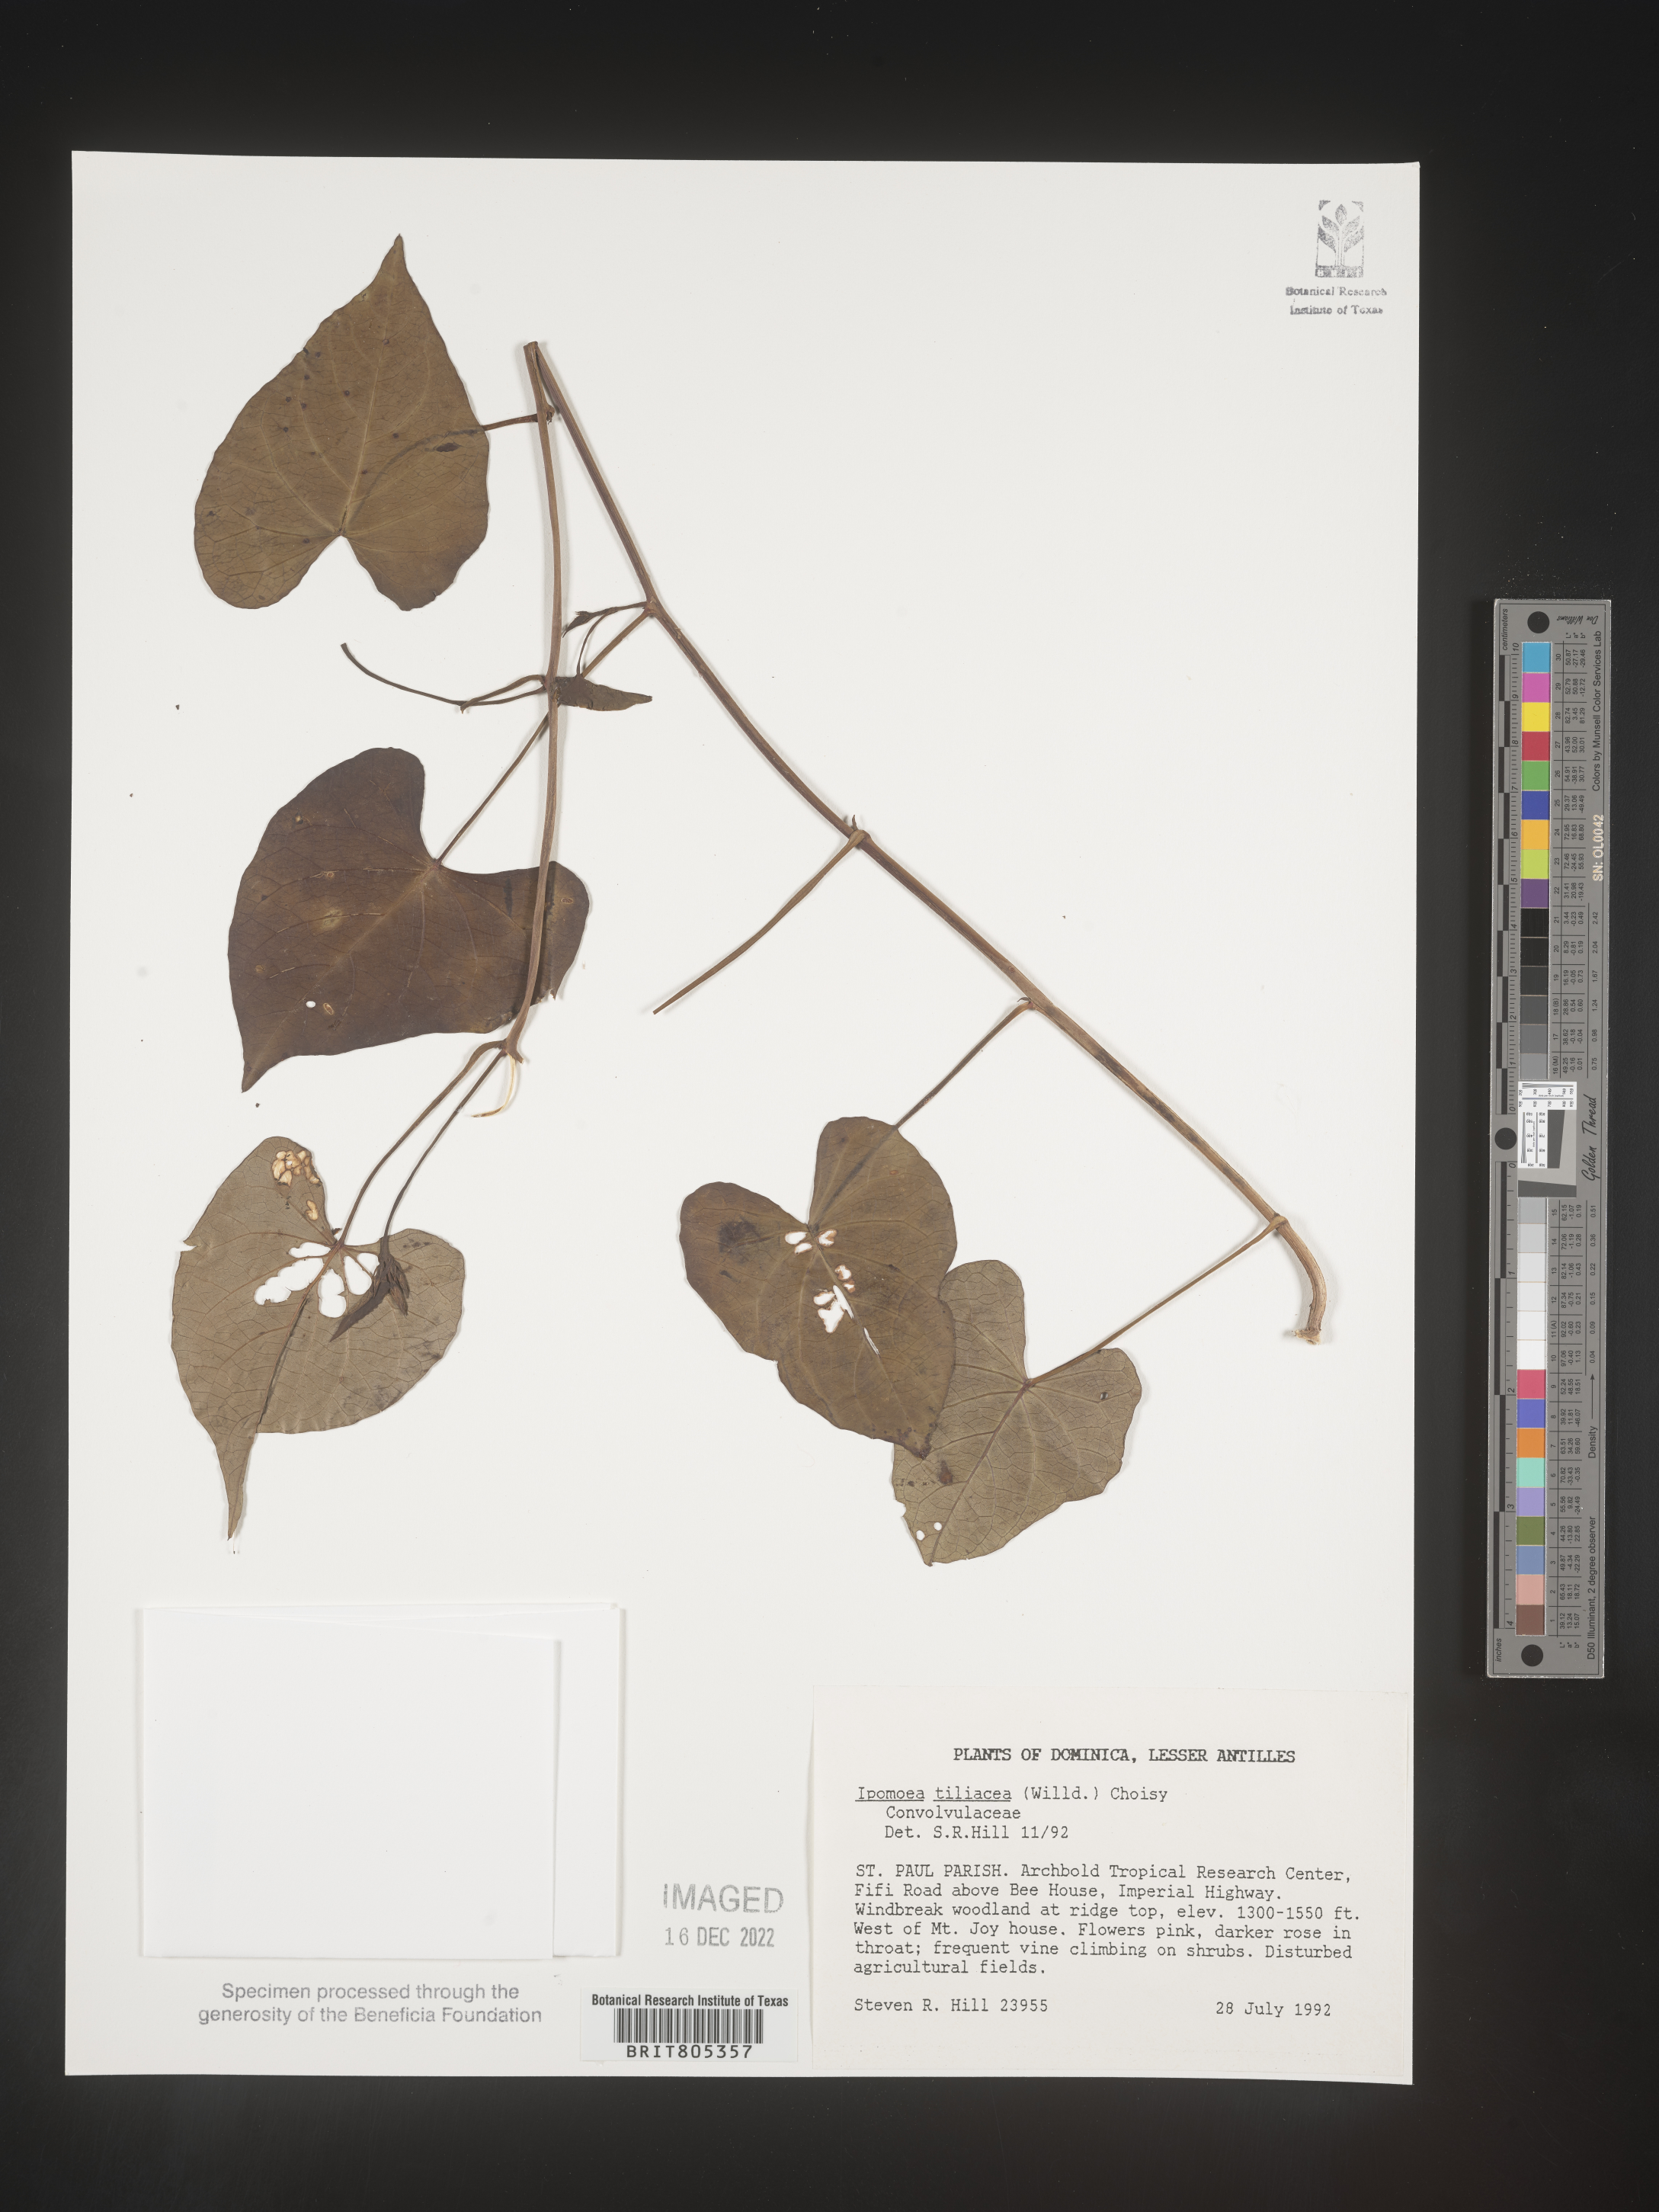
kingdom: Plantae
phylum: Tracheophyta
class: Magnoliopsida
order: Solanales
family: Convolvulaceae
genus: Ipomoea
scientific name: Ipomoea
